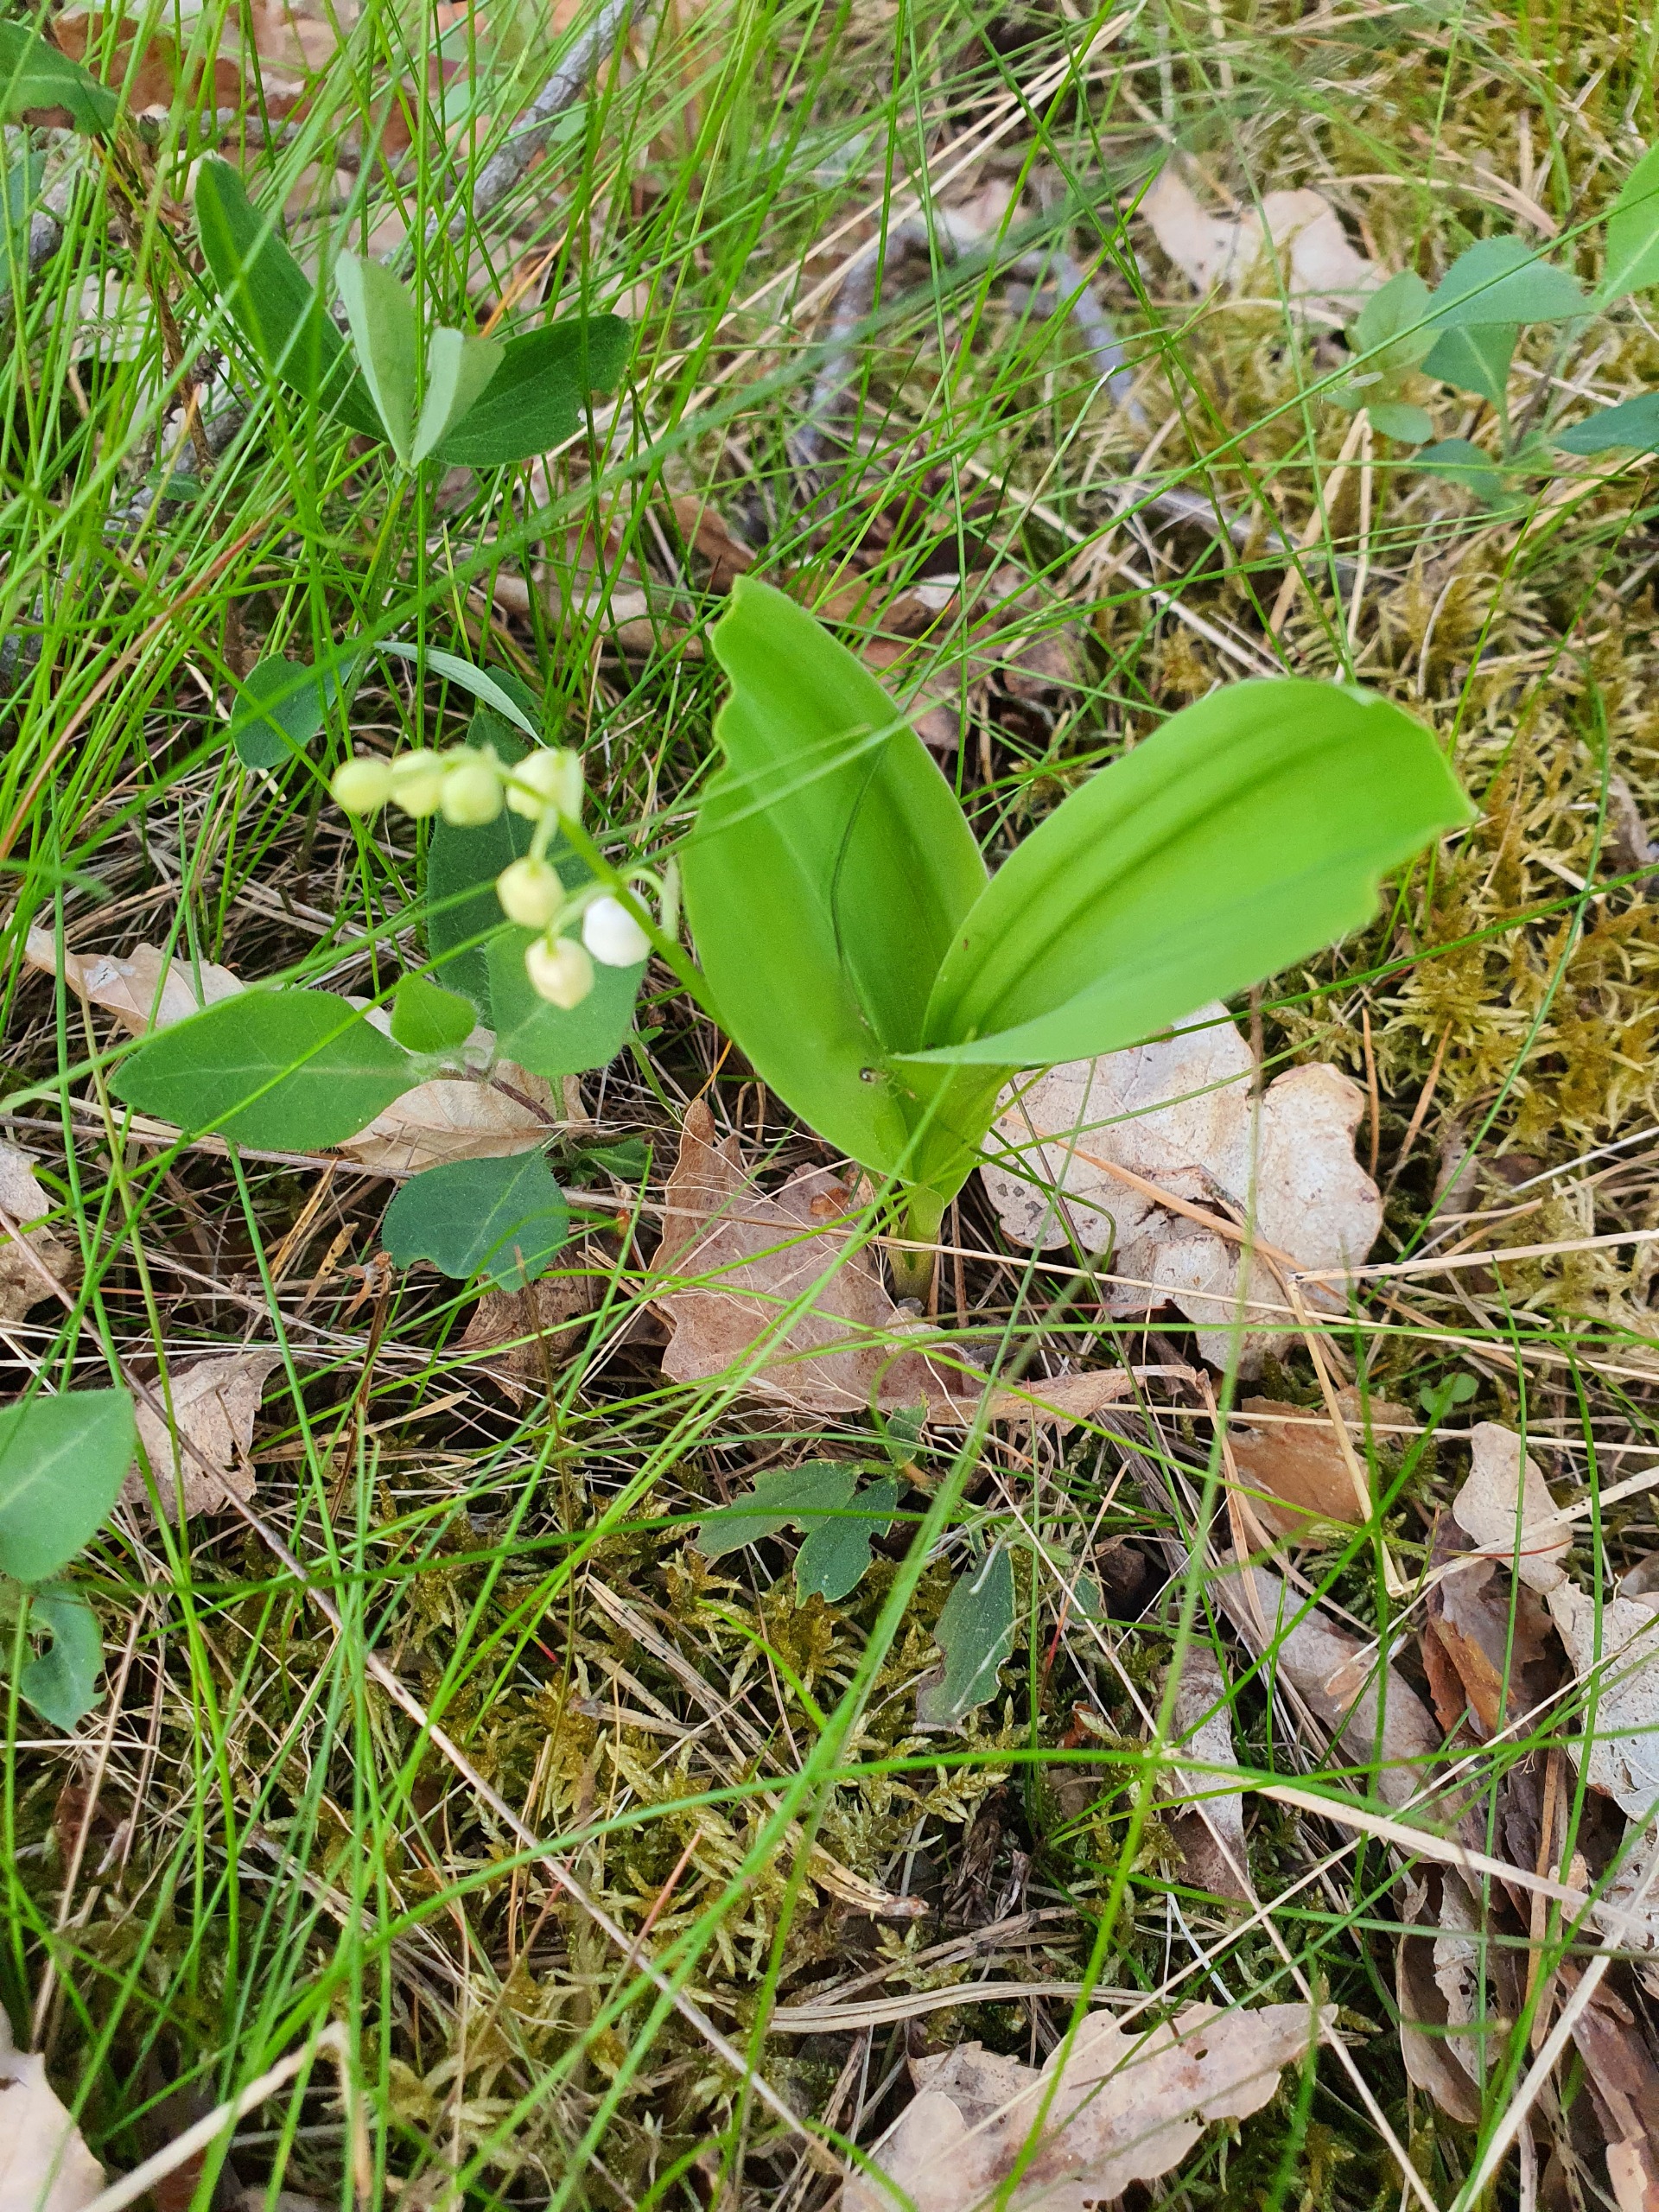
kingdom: Plantae
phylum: Tracheophyta
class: Liliopsida
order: Asparagales
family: Asparagaceae
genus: Convallaria
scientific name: Convallaria majalis
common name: Liljekonval
